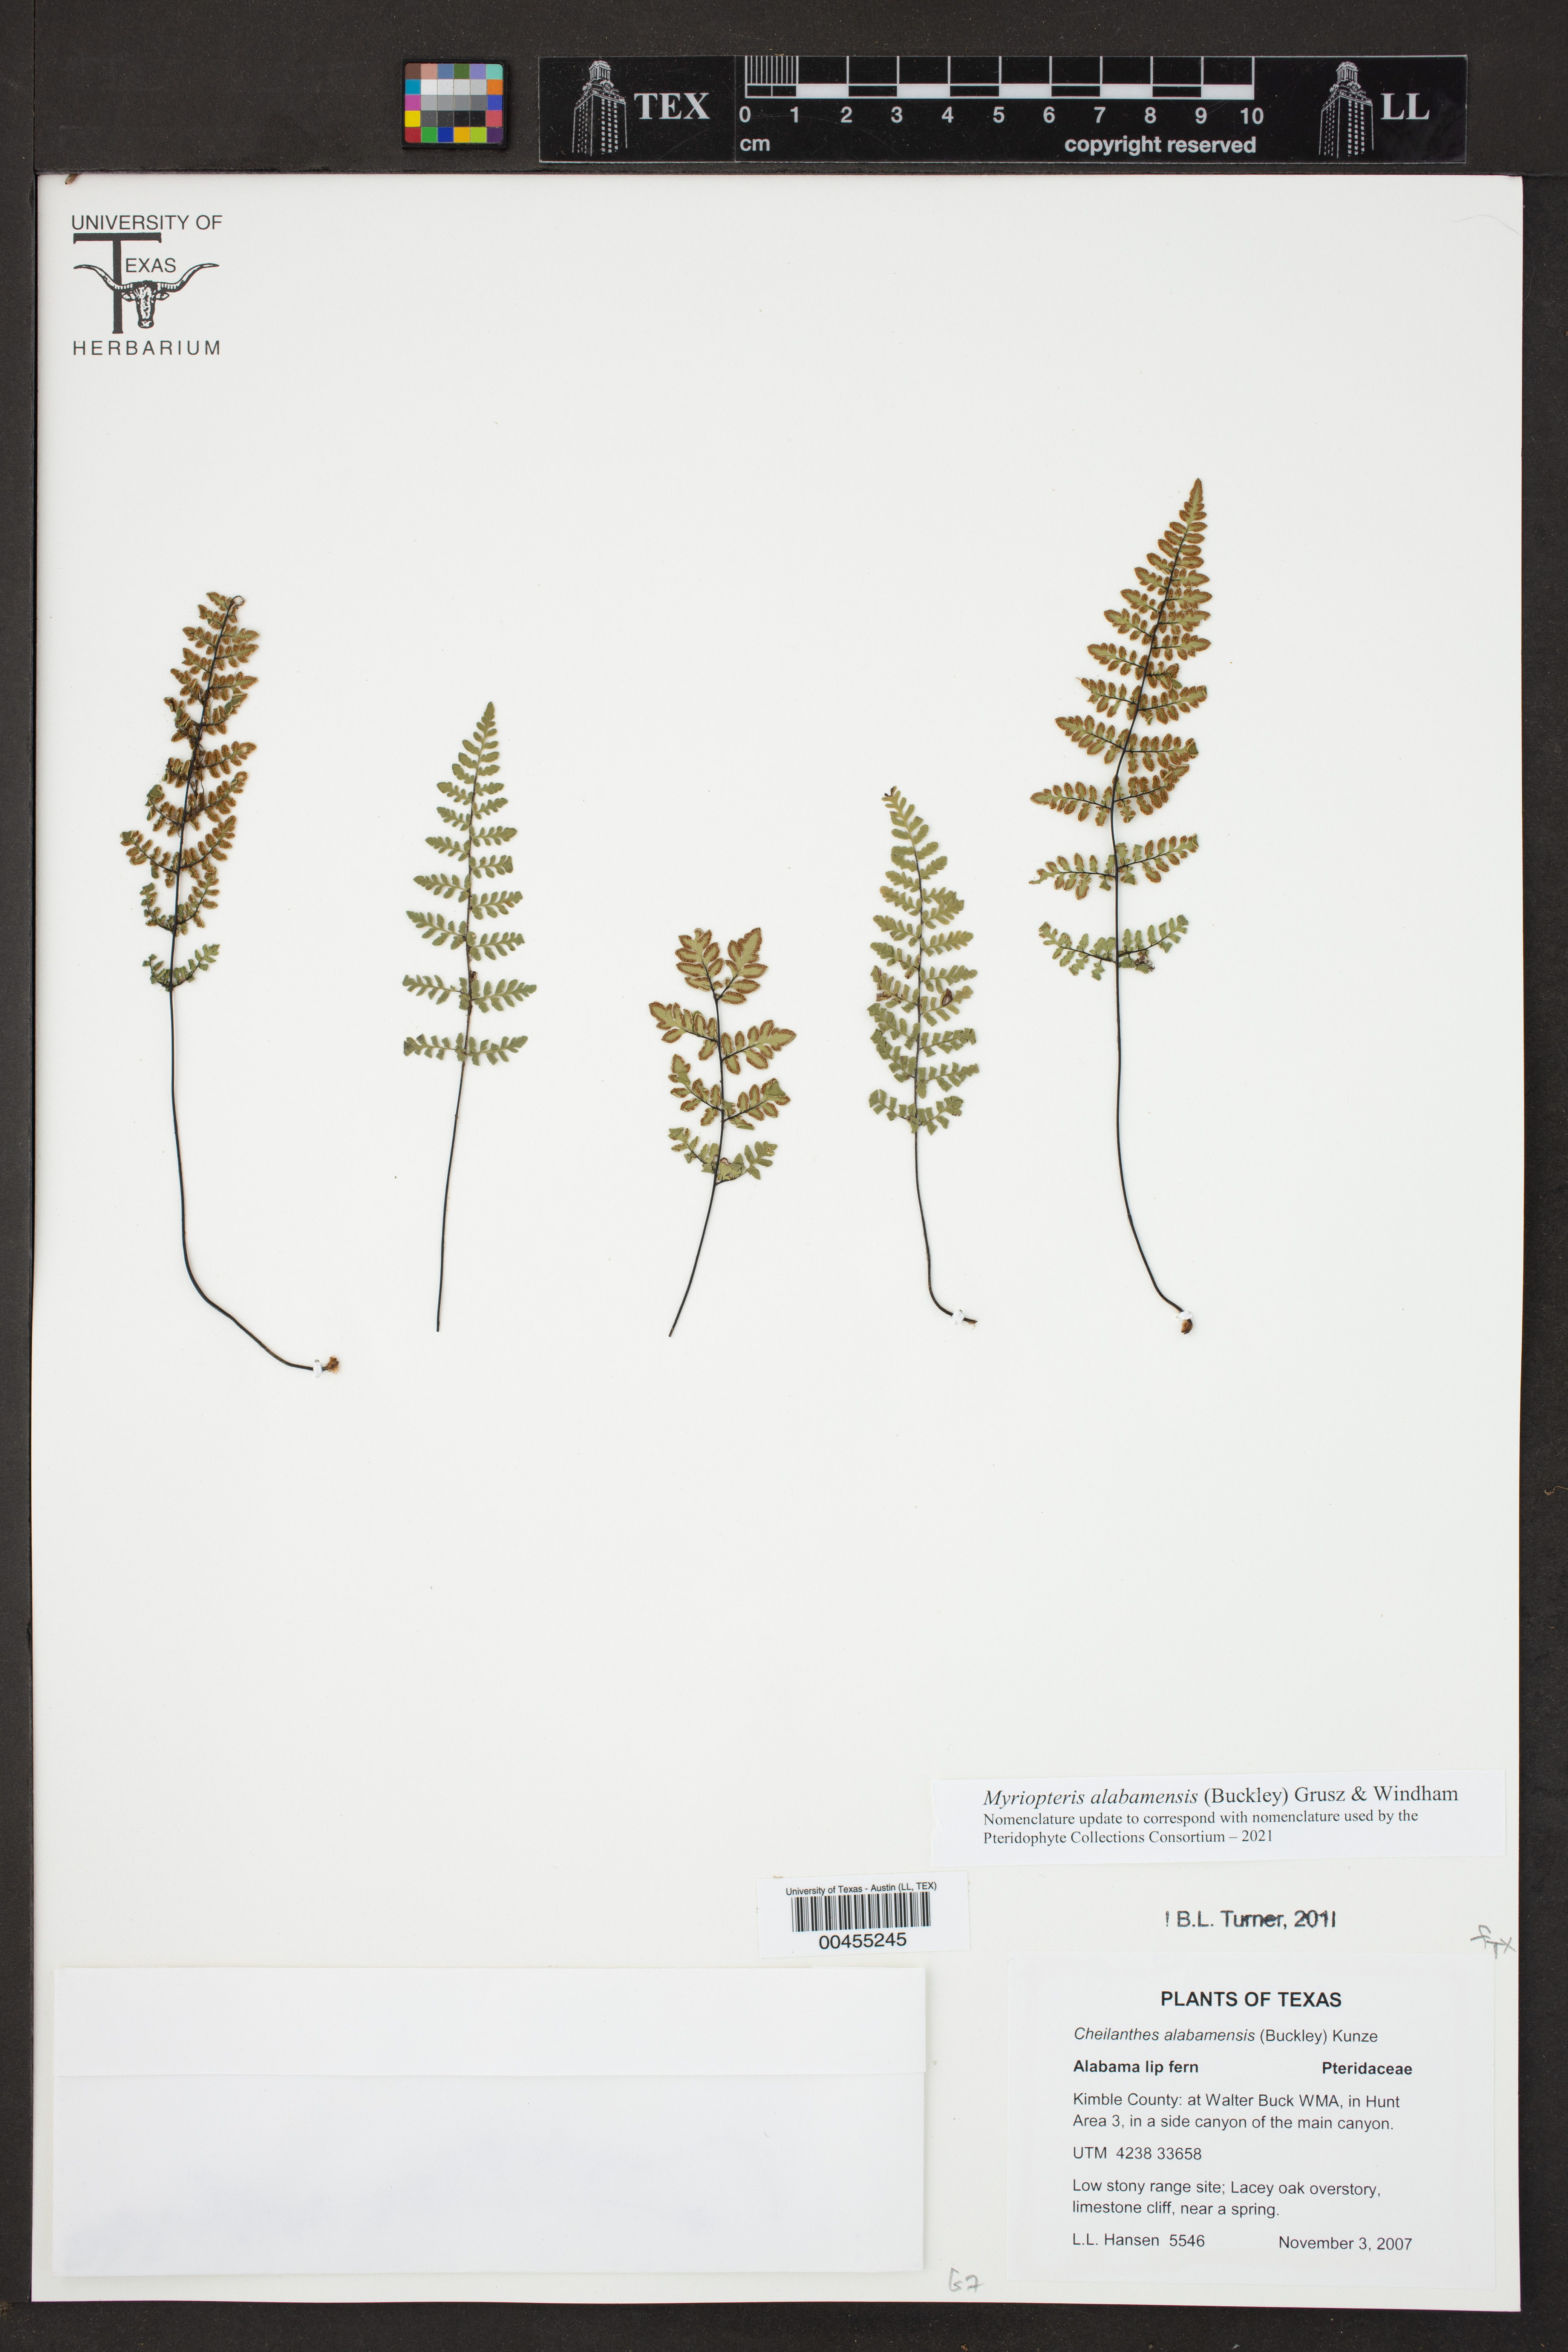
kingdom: Plantae
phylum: Tracheophyta
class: Polypodiopsida
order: Polypodiales
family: Pteridaceae
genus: Myriopteris
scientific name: Myriopteris alabamensis
